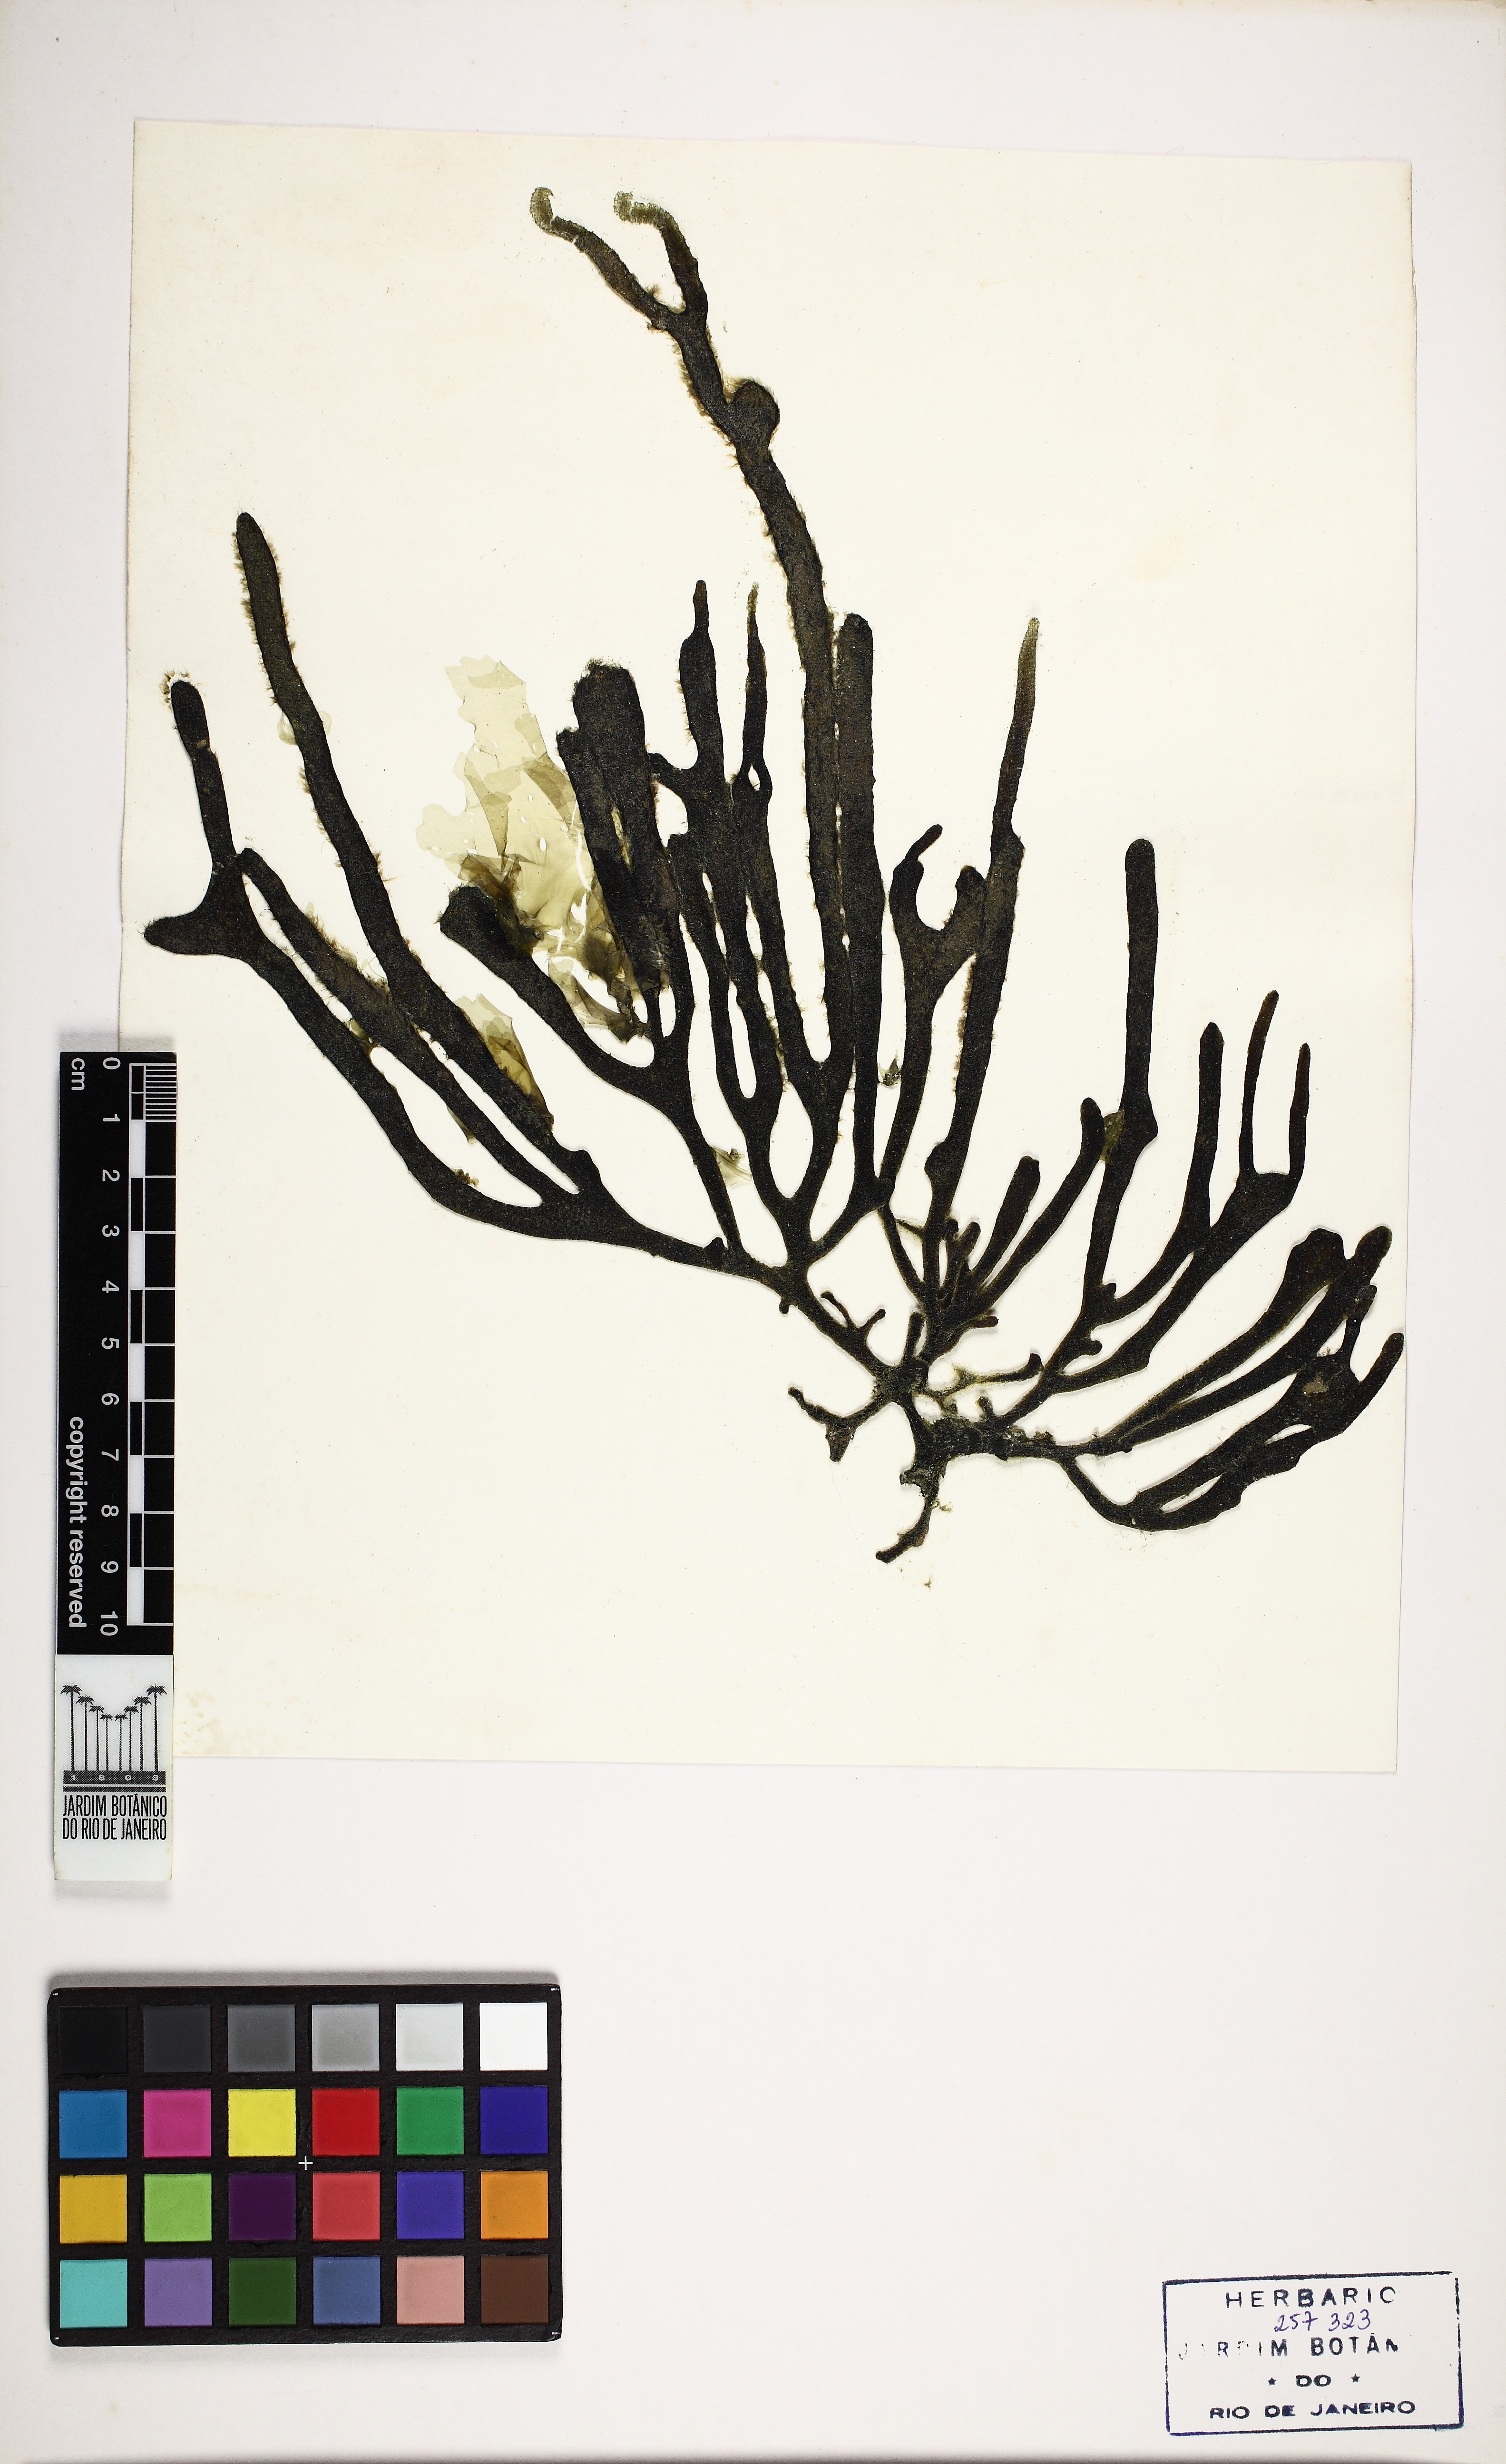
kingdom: Plantae
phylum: Chlorophyta
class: Ulvophyceae
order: Bryopsidales
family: Codiaceae
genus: Codium
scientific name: Codium decorticatum
